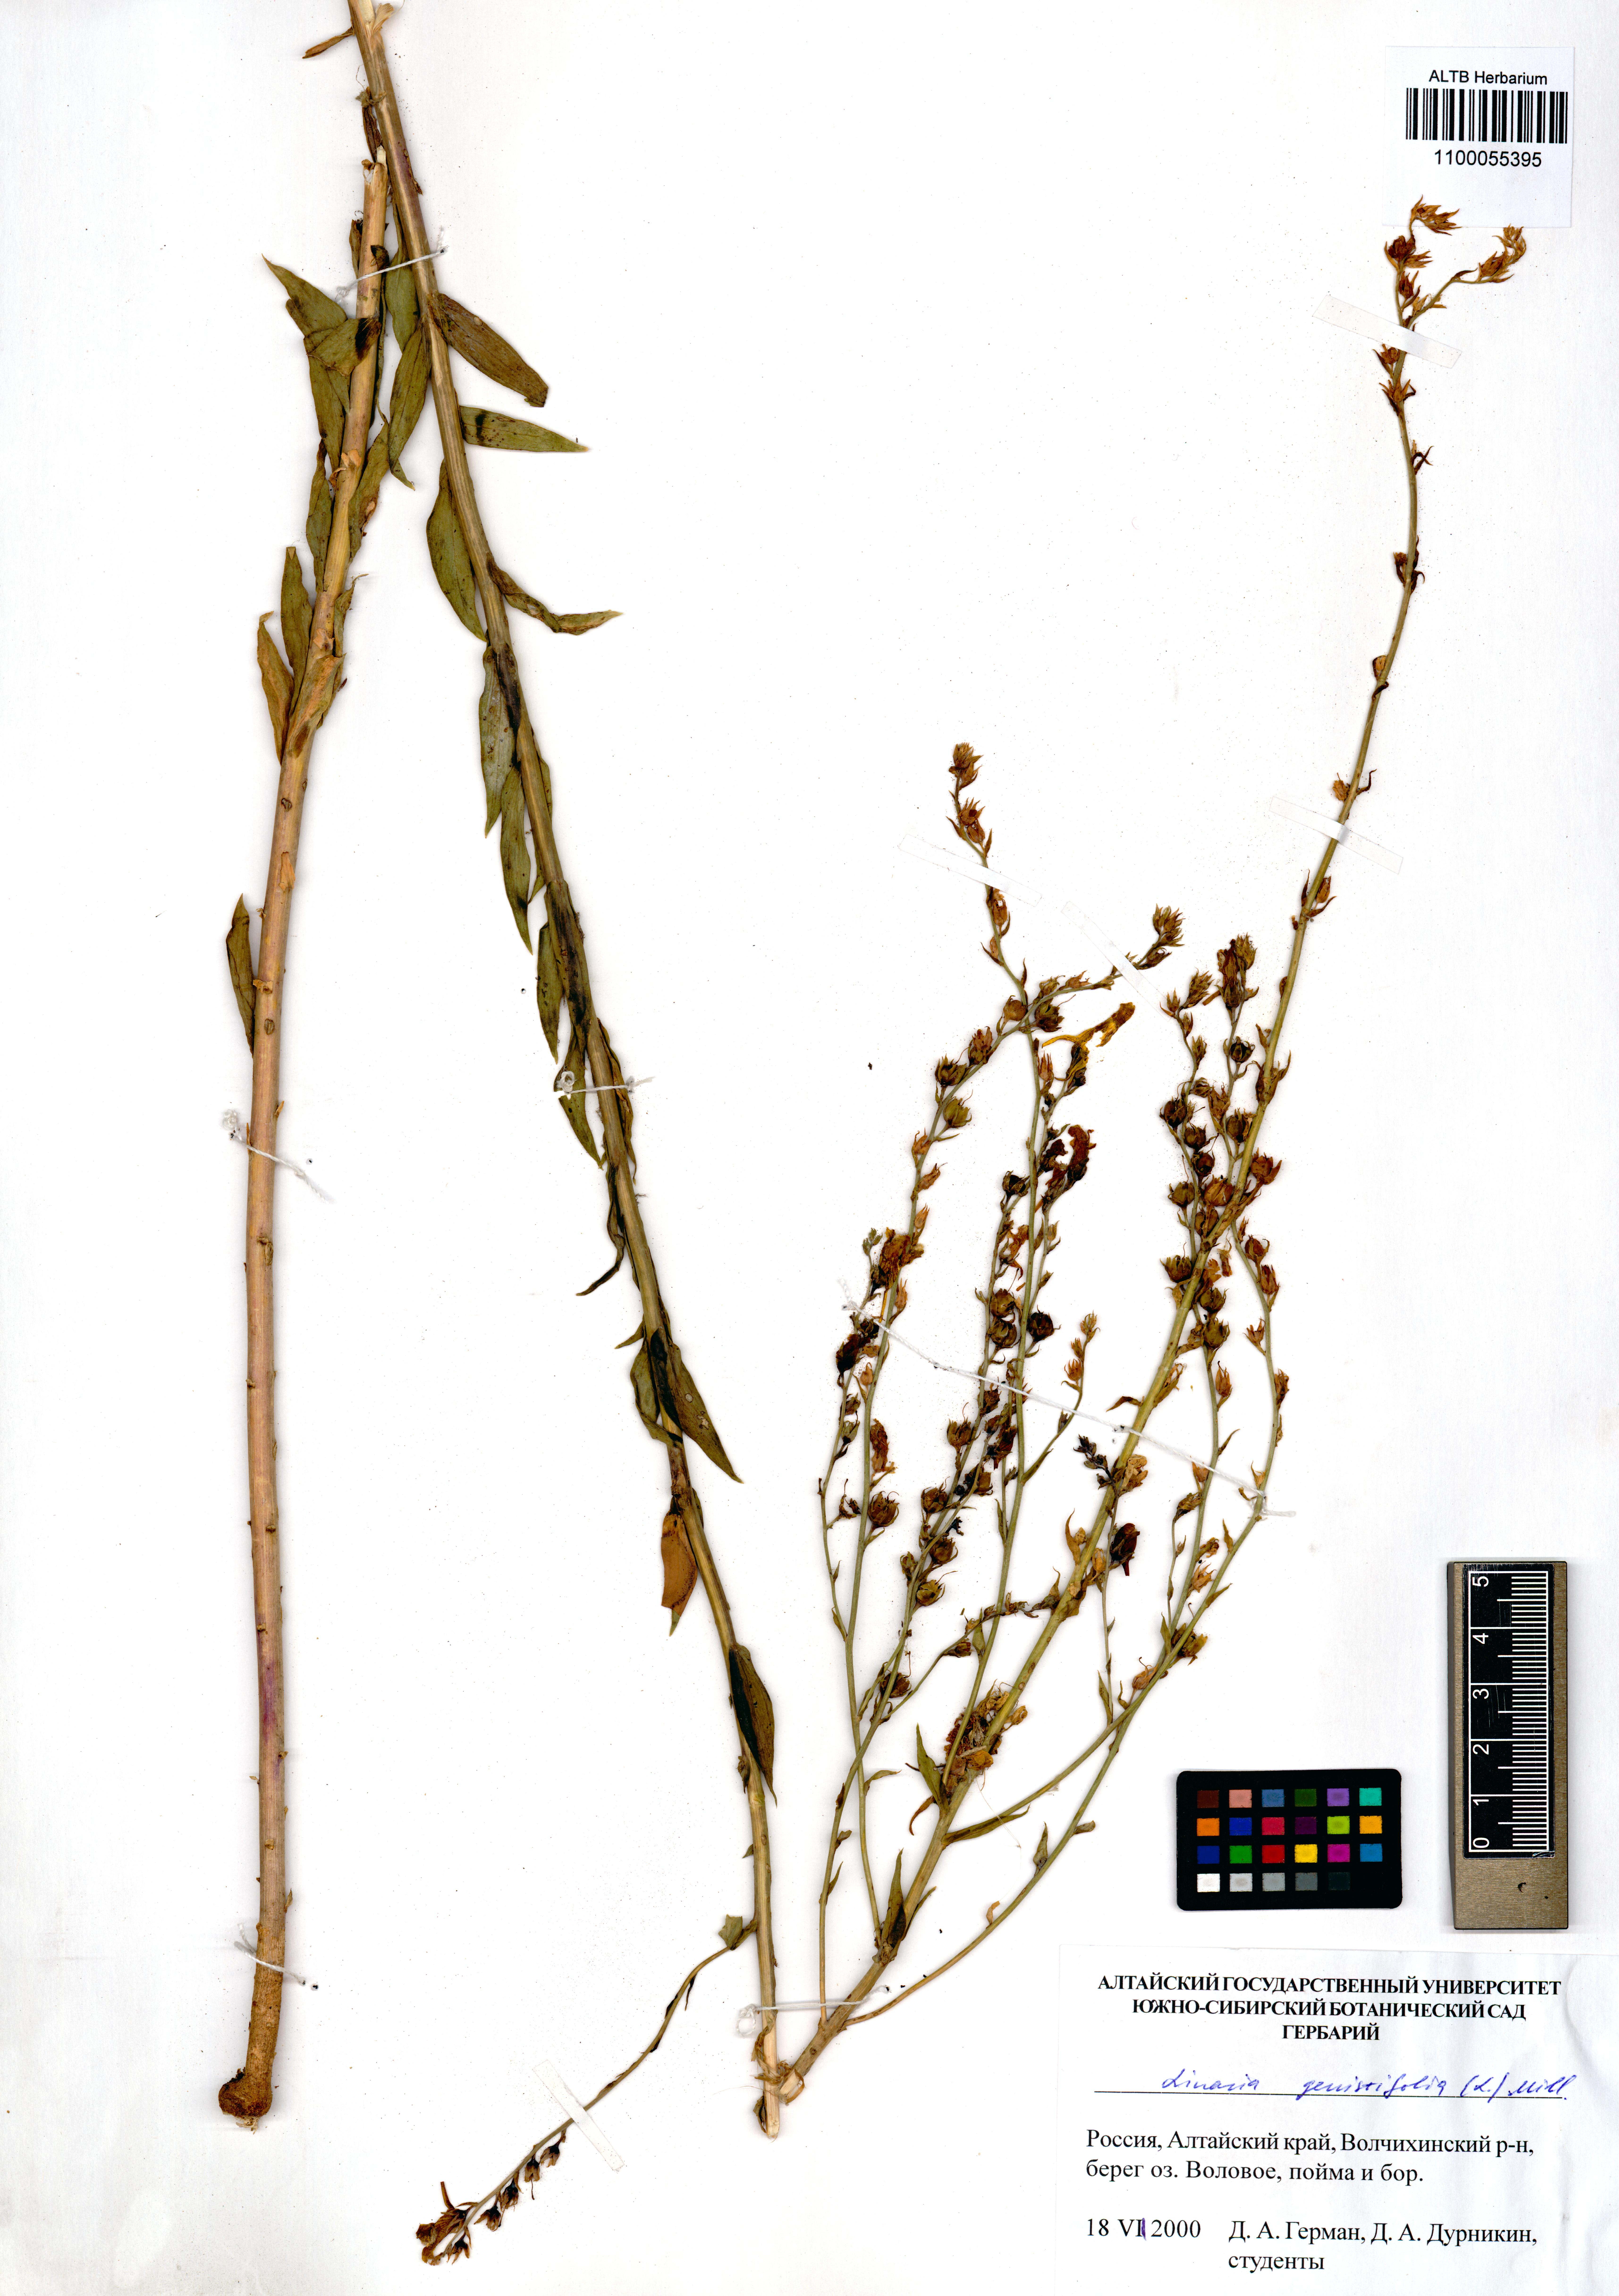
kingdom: Plantae
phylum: Tracheophyta
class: Magnoliopsida
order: Lamiales
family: Plantaginaceae
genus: Linaria
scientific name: Linaria genistifolia
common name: Broomleaf toadflax
